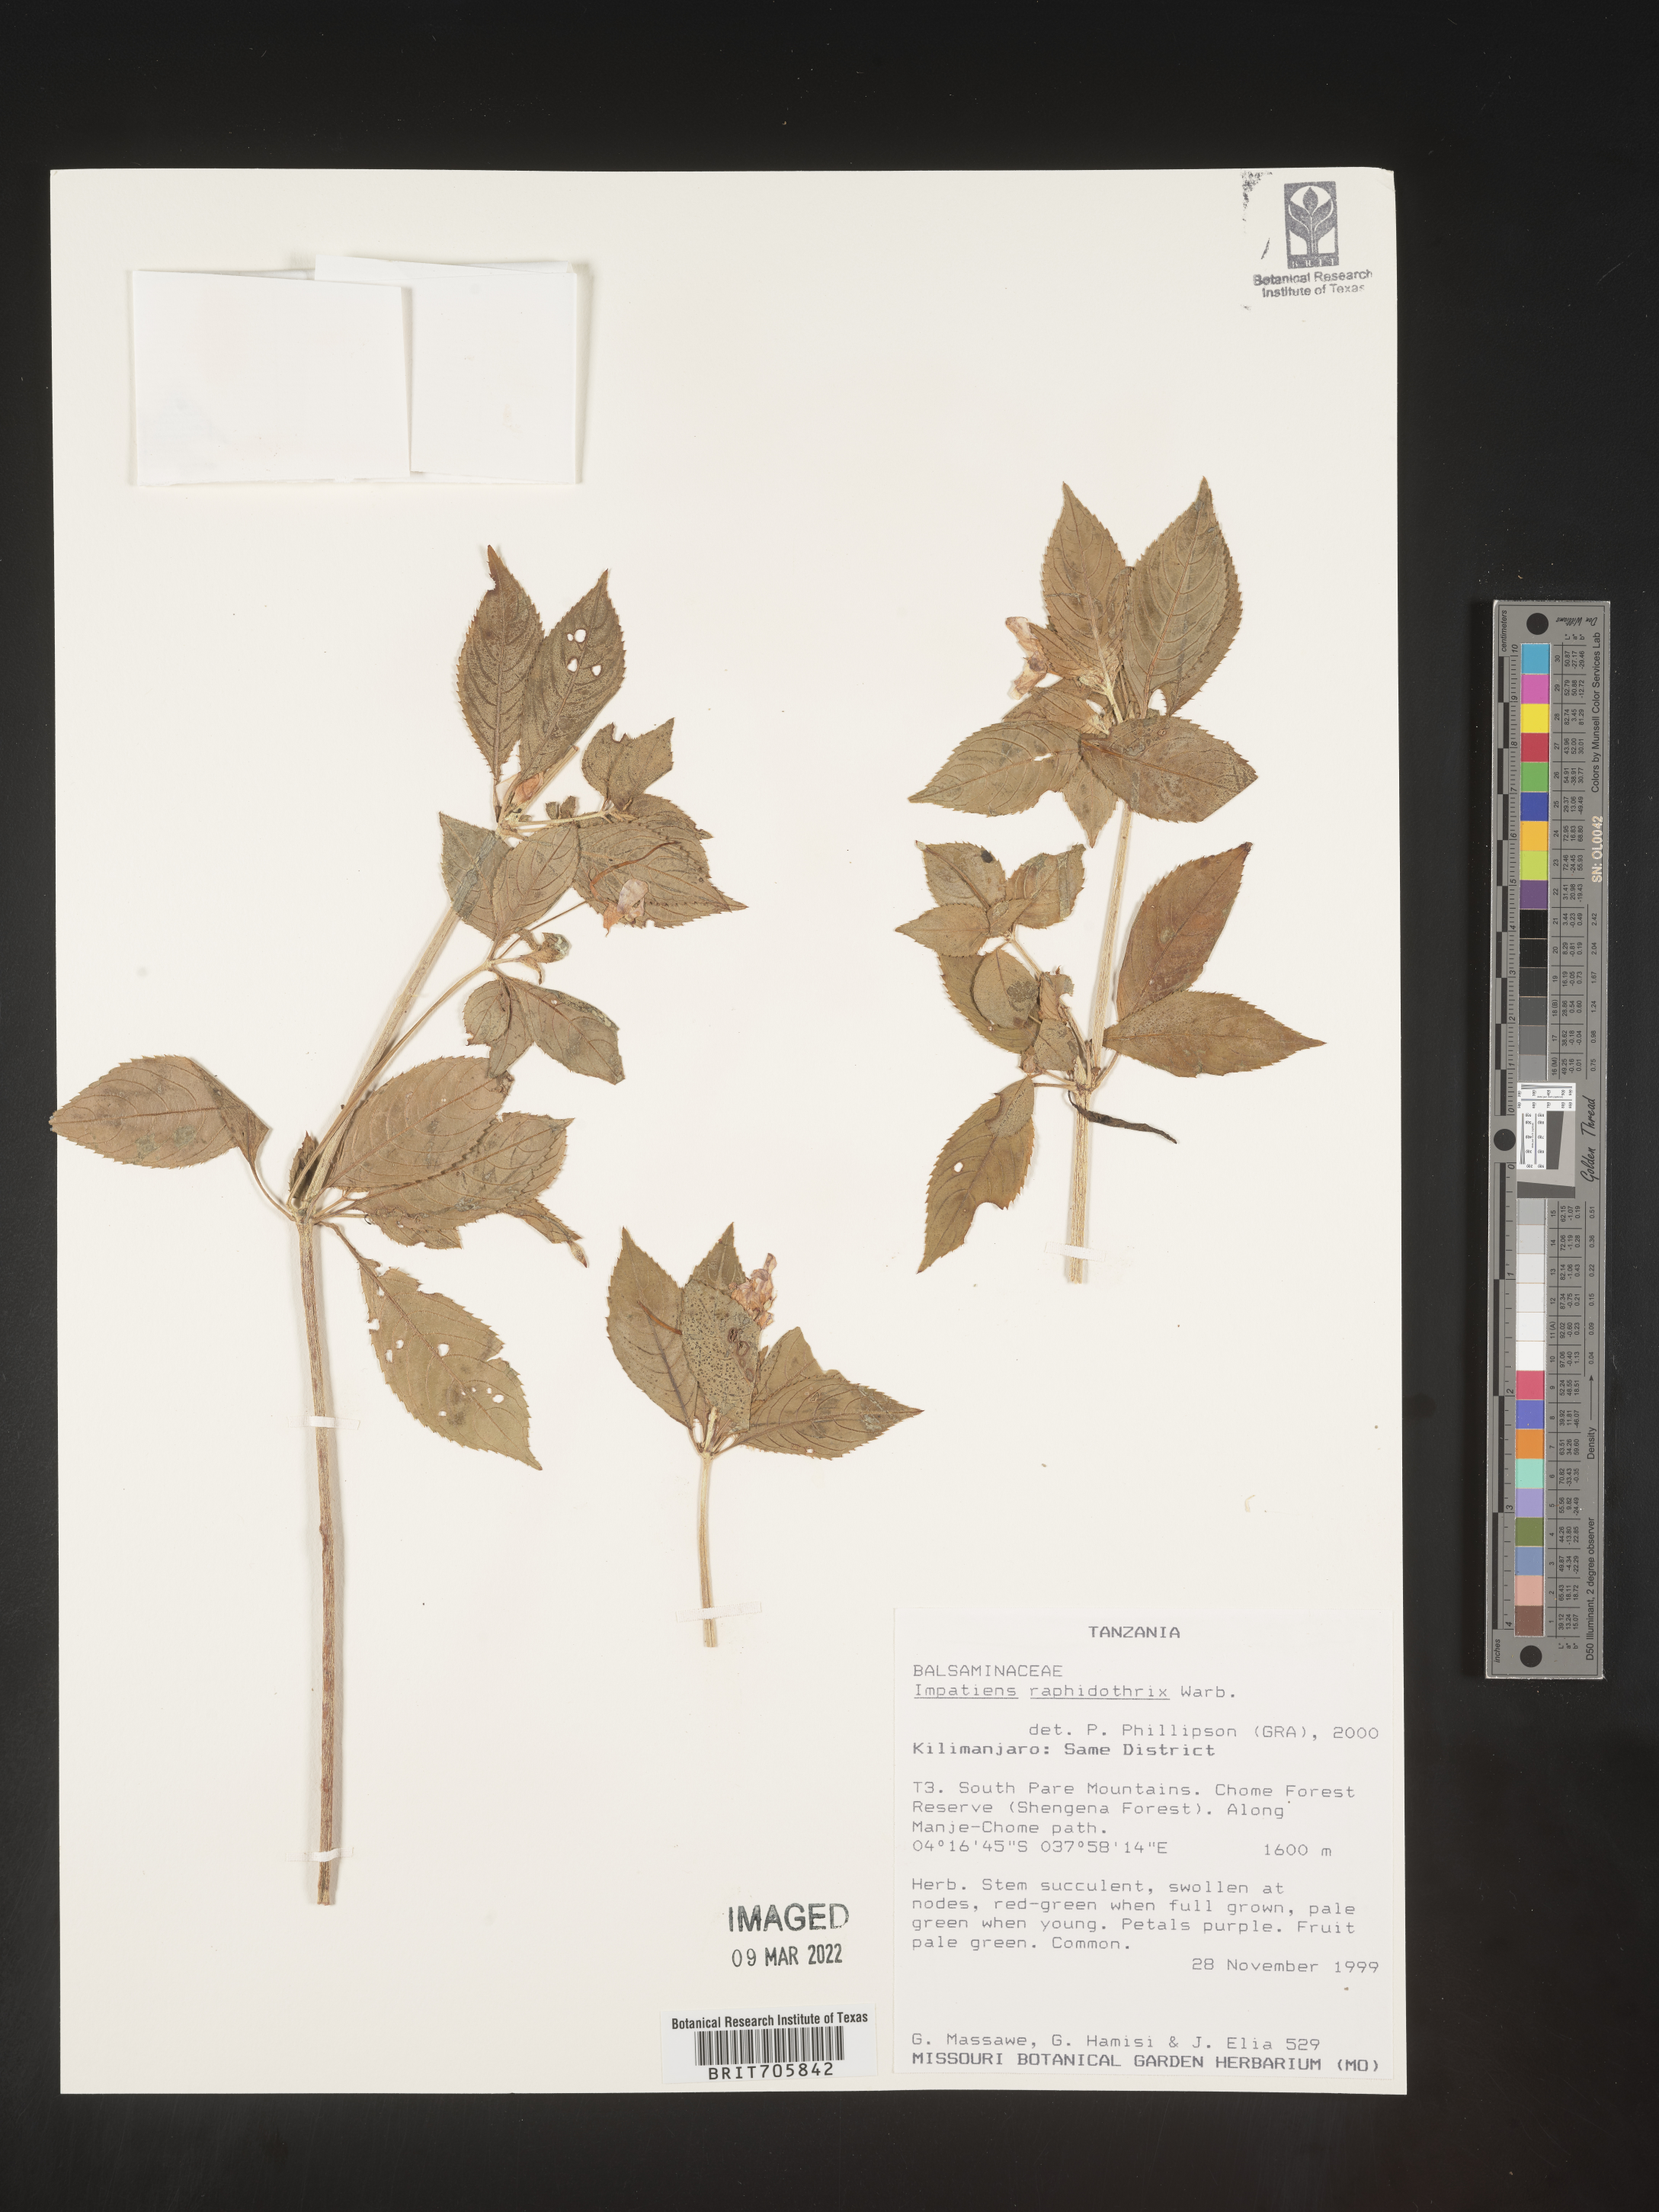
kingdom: Plantae
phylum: Tracheophyta
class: Magnoliopsida
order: Ericales
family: Balsaminaceae
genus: Impatiens
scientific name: Impatiens
